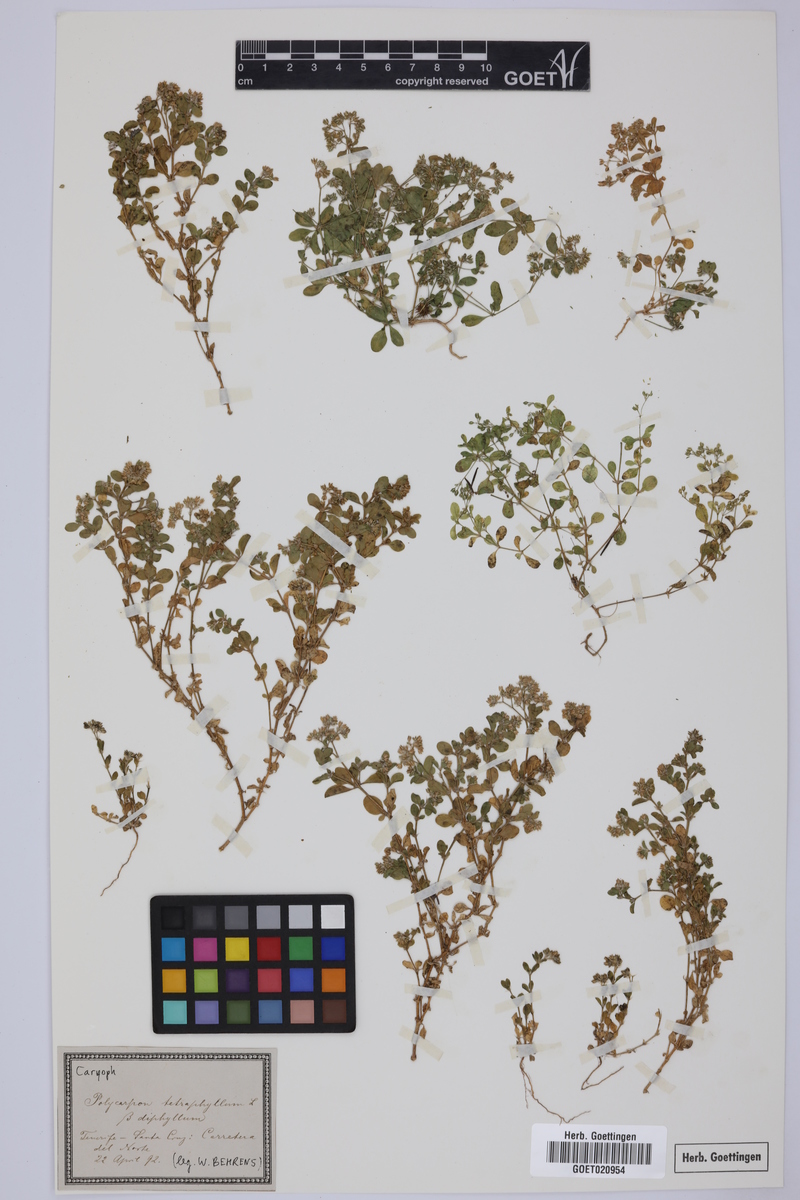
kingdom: Plantae
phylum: Tracheophyta
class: Magnoliopsida
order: Caryophyllales
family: Caryophyllaceae
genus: Polycarpon
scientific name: Polycarpon tetraphyllum
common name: Four-leaved all-seed
